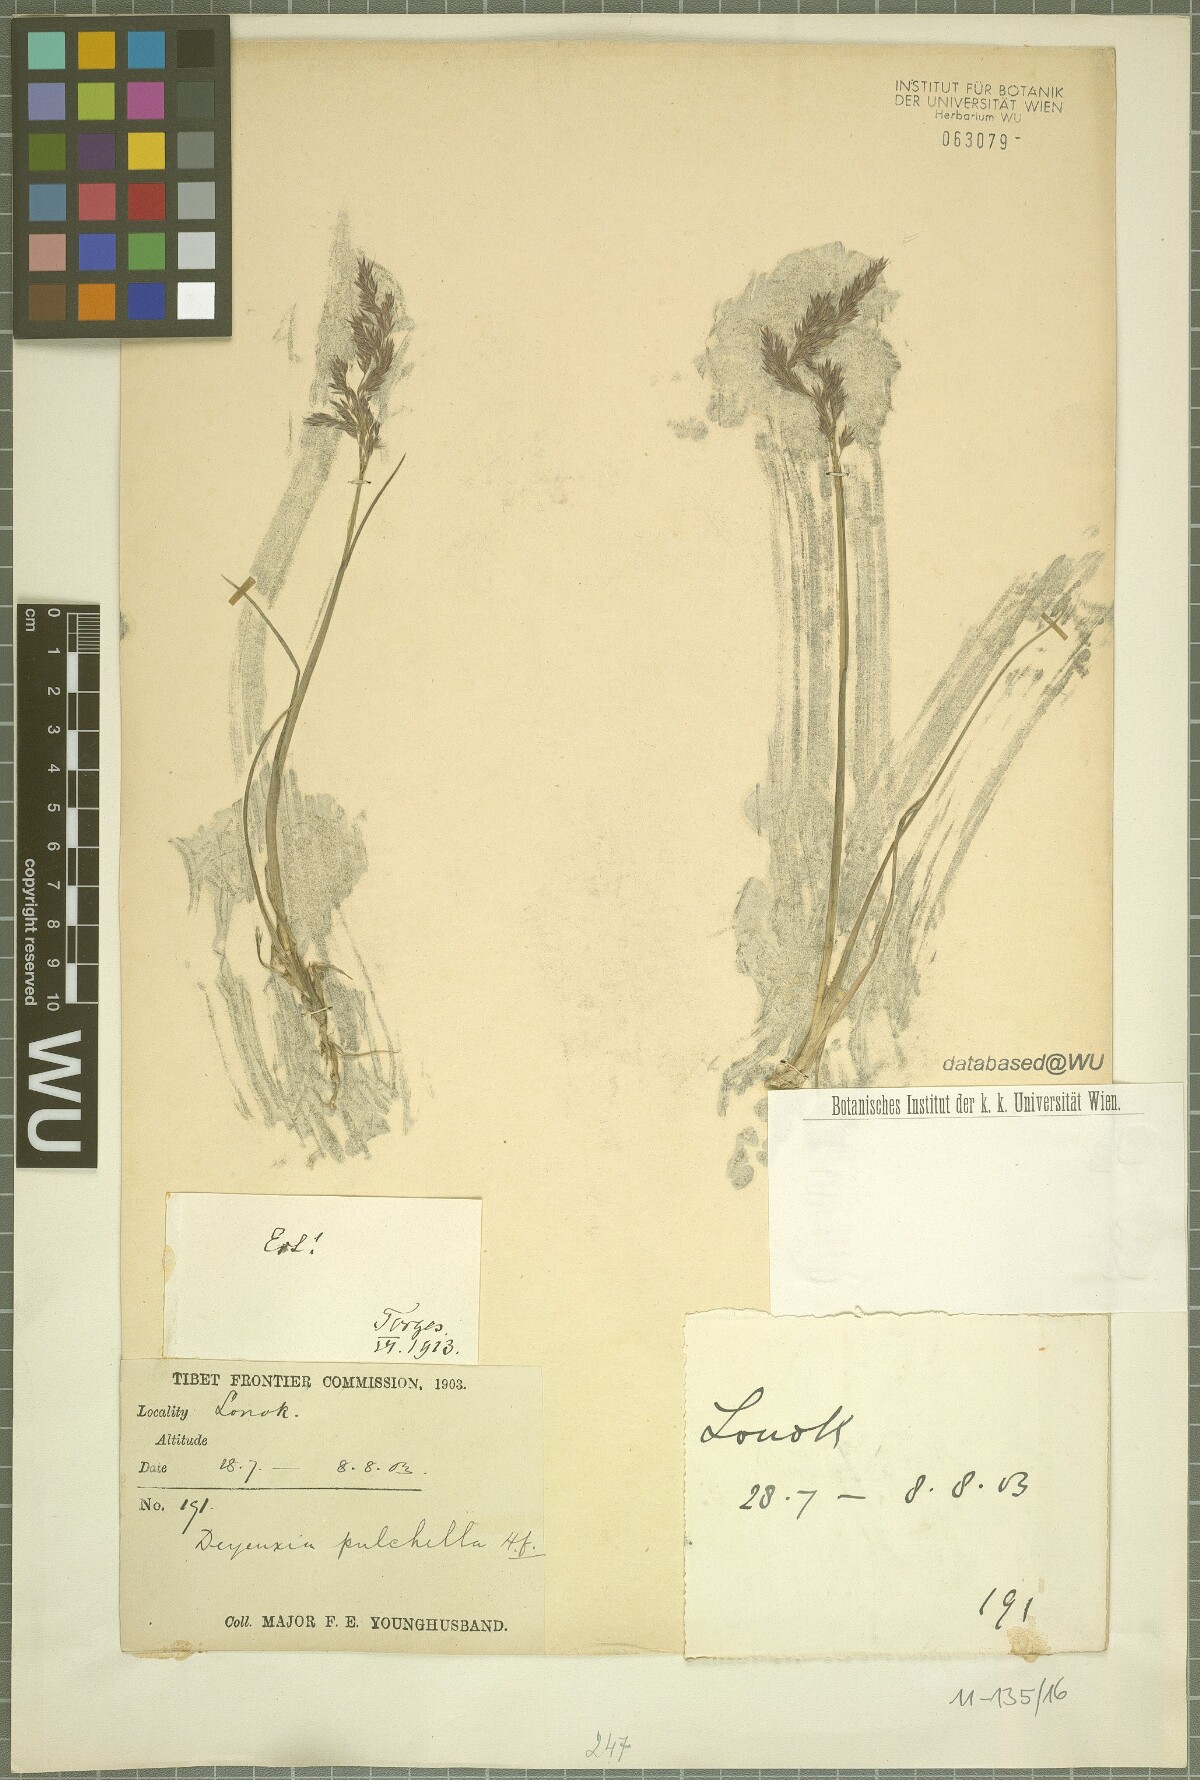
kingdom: Plantae
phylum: Tracheophyta
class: Liliopsida
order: Poales
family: Poaceae
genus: Calamagrostis
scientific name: Calamagrostis lahulensis
